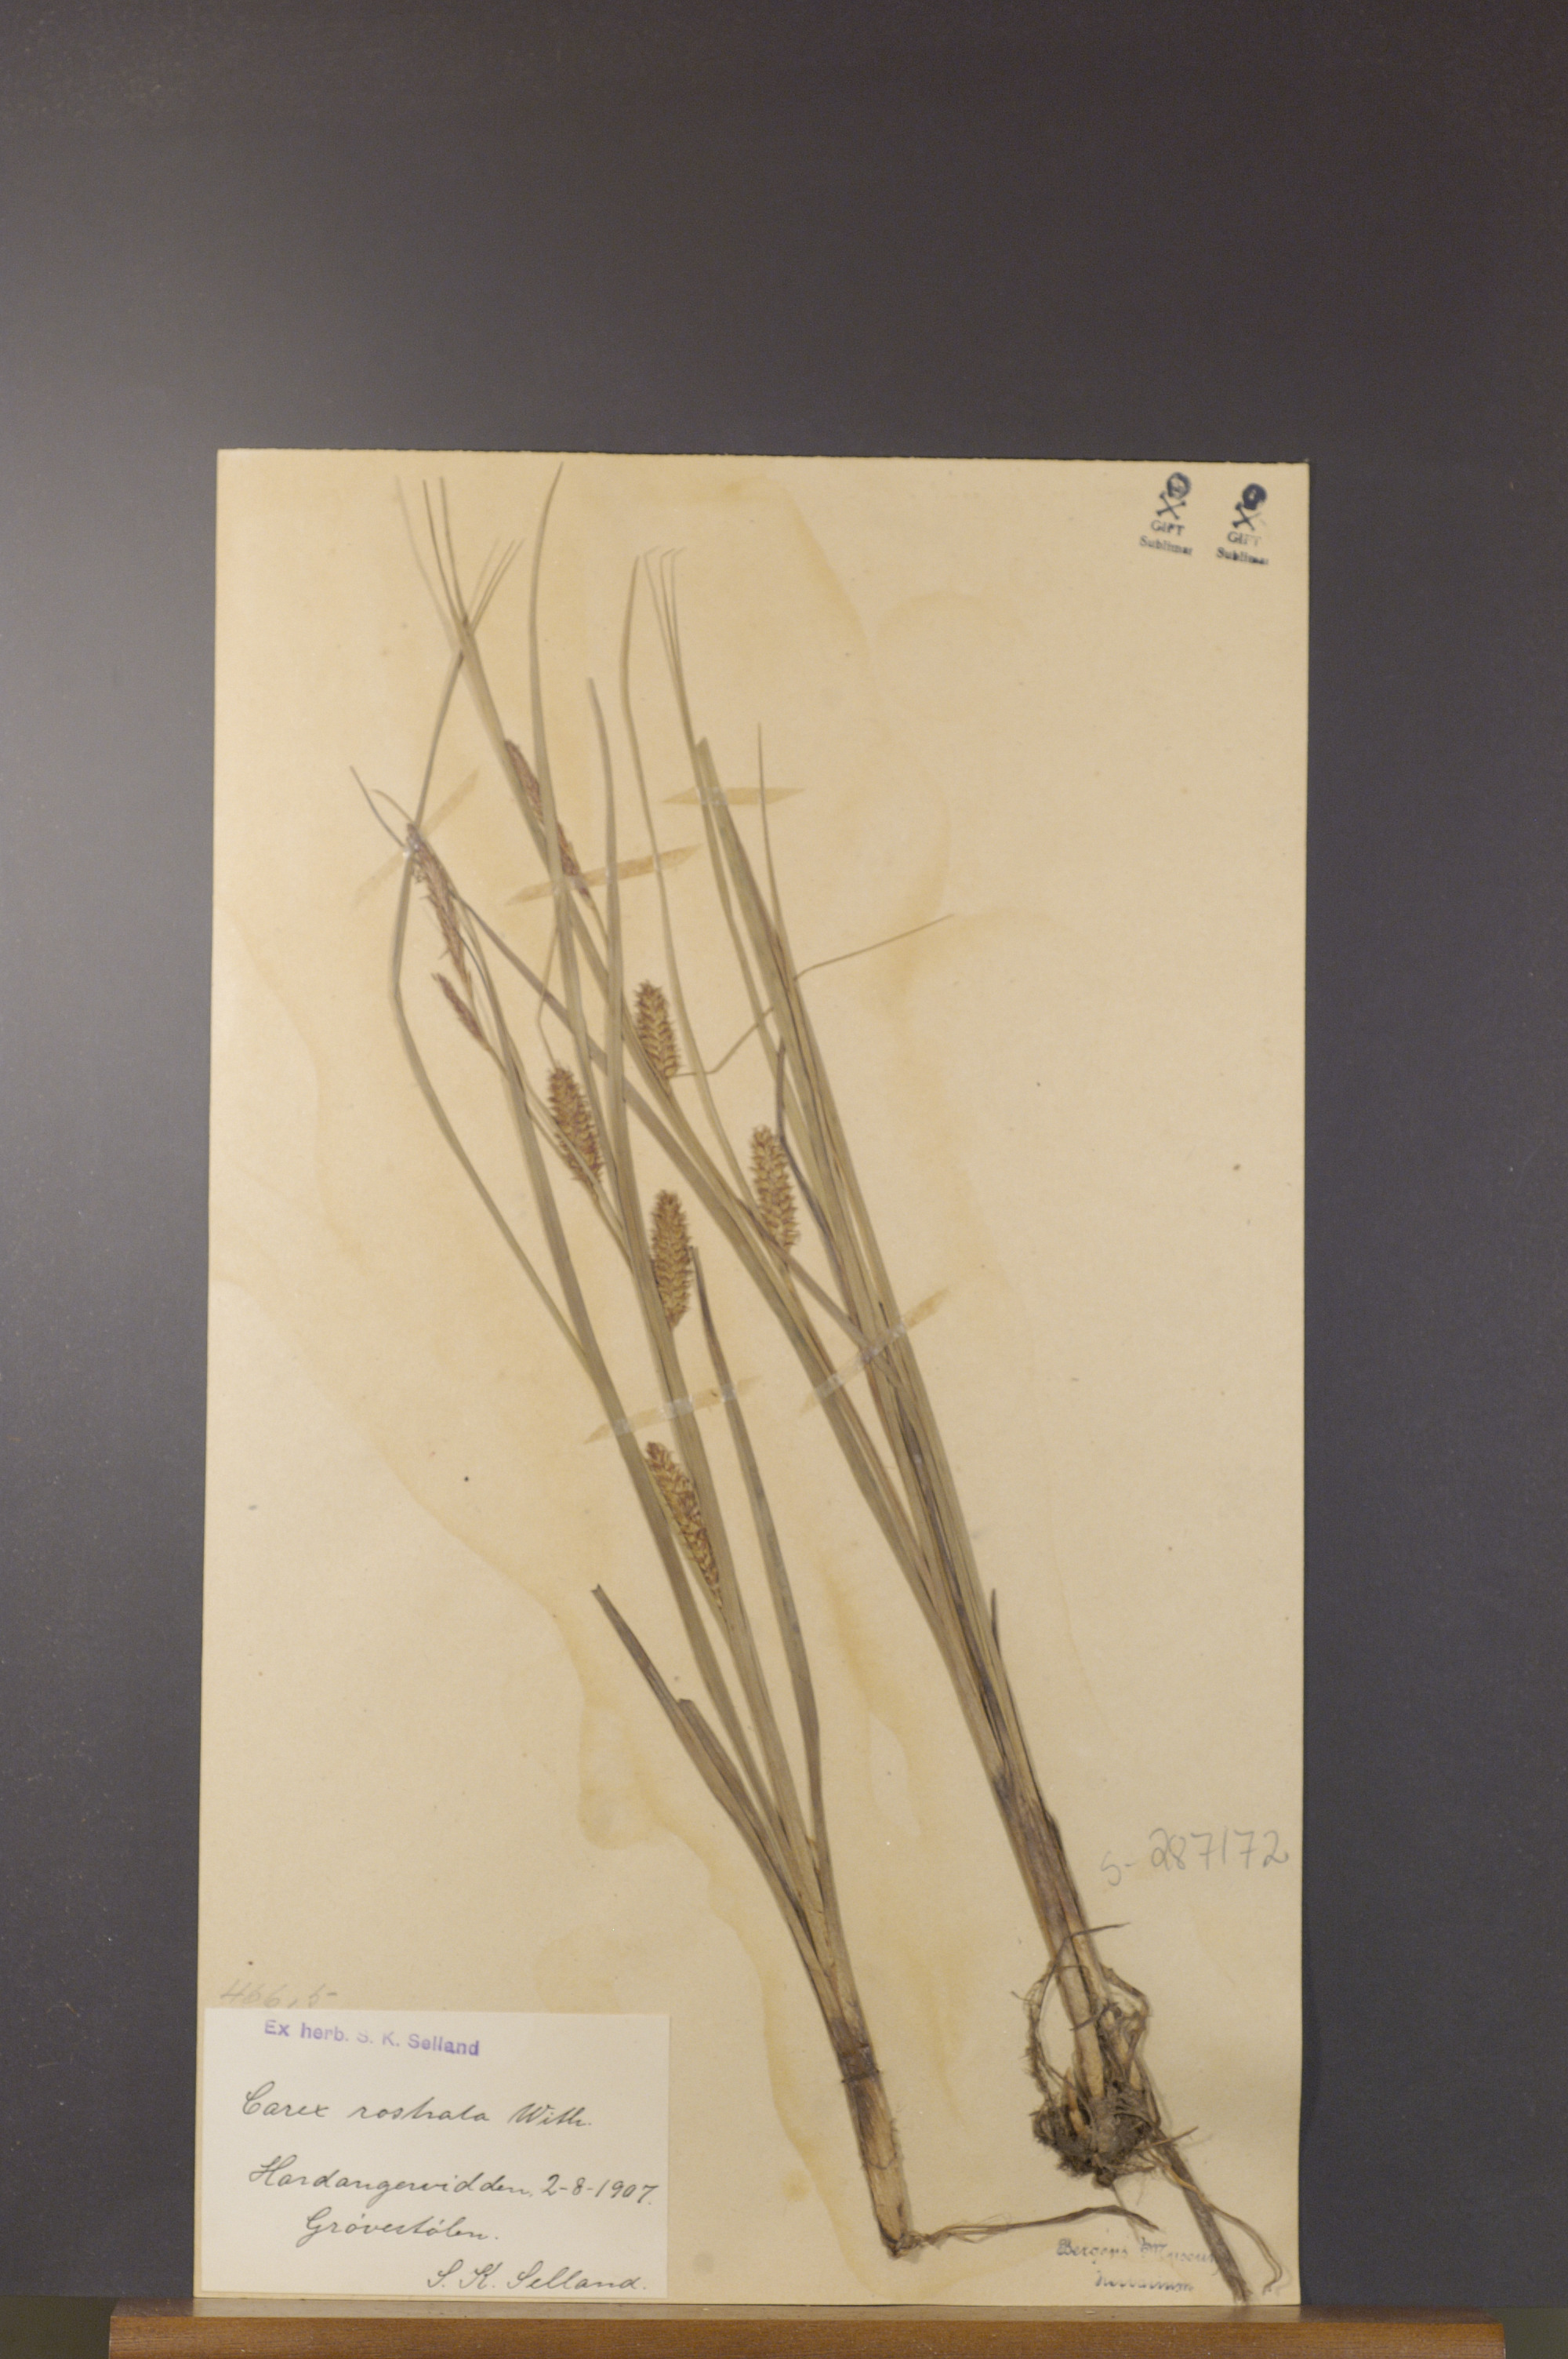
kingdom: Plantae
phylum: Tracheophyta
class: Liliopsida
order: Poales
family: Cyperaceae
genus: Carex
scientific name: Carex rostrata
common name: Bottle sedge
